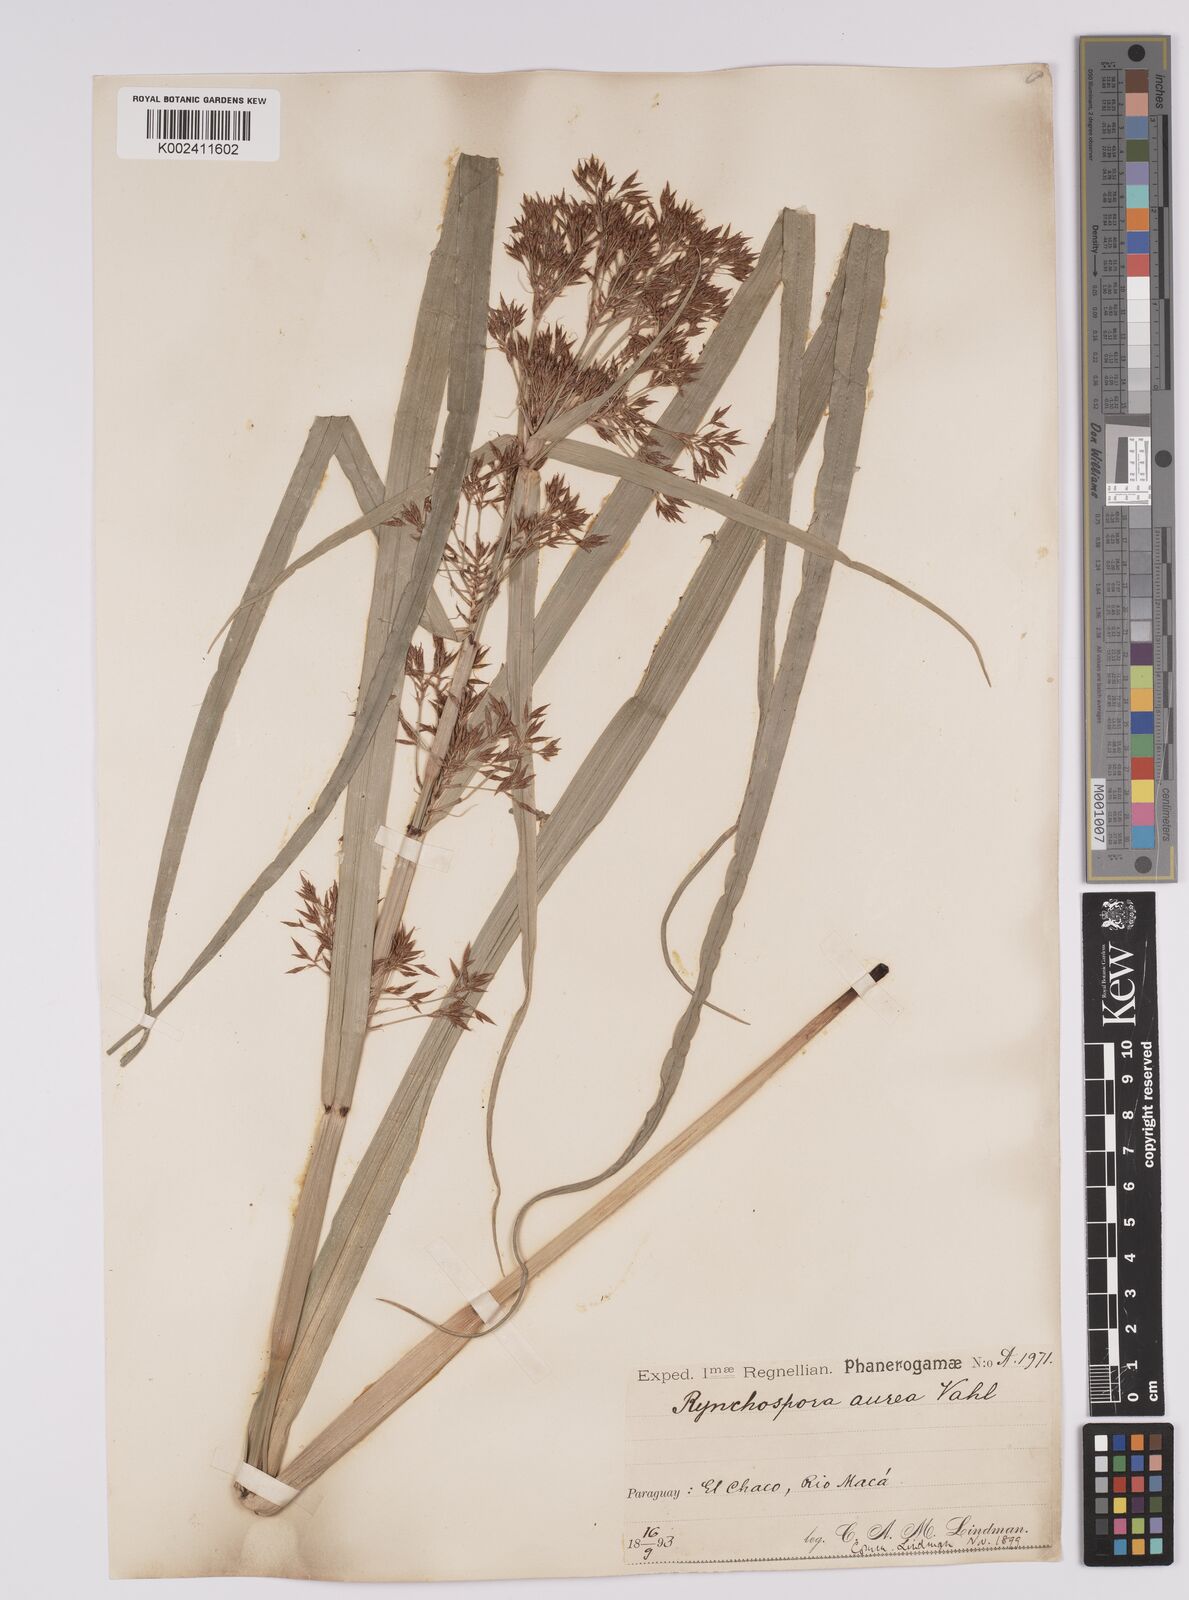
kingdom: Plantae
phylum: Tracheophyta
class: Liliopsida
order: Poales
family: Cyperaceae
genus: Rhynchospora
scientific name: Rhynchospora corymbosa
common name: Golden beak sedge
